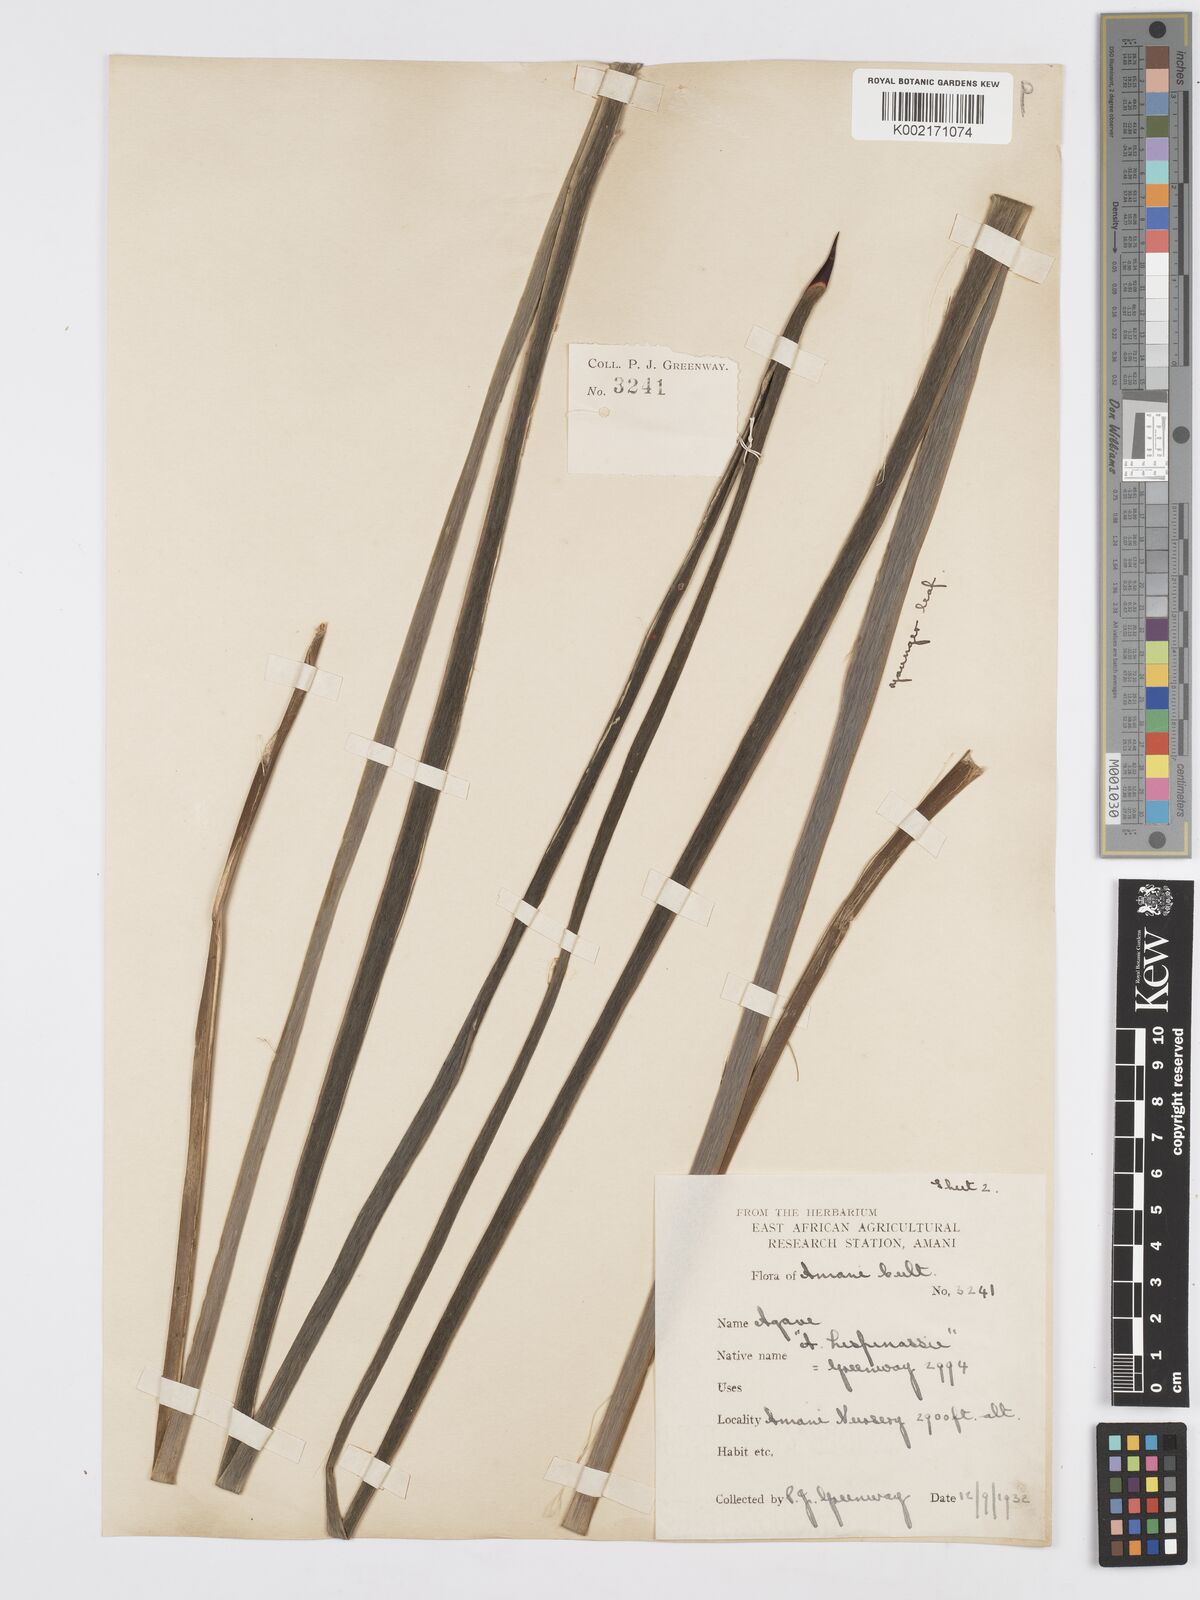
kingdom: Plantae
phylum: Tracheophyta
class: Liliopsida
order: Asparagales
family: Asparagaceae
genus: Agave
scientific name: Agave sisalana
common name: Sisal hemp
